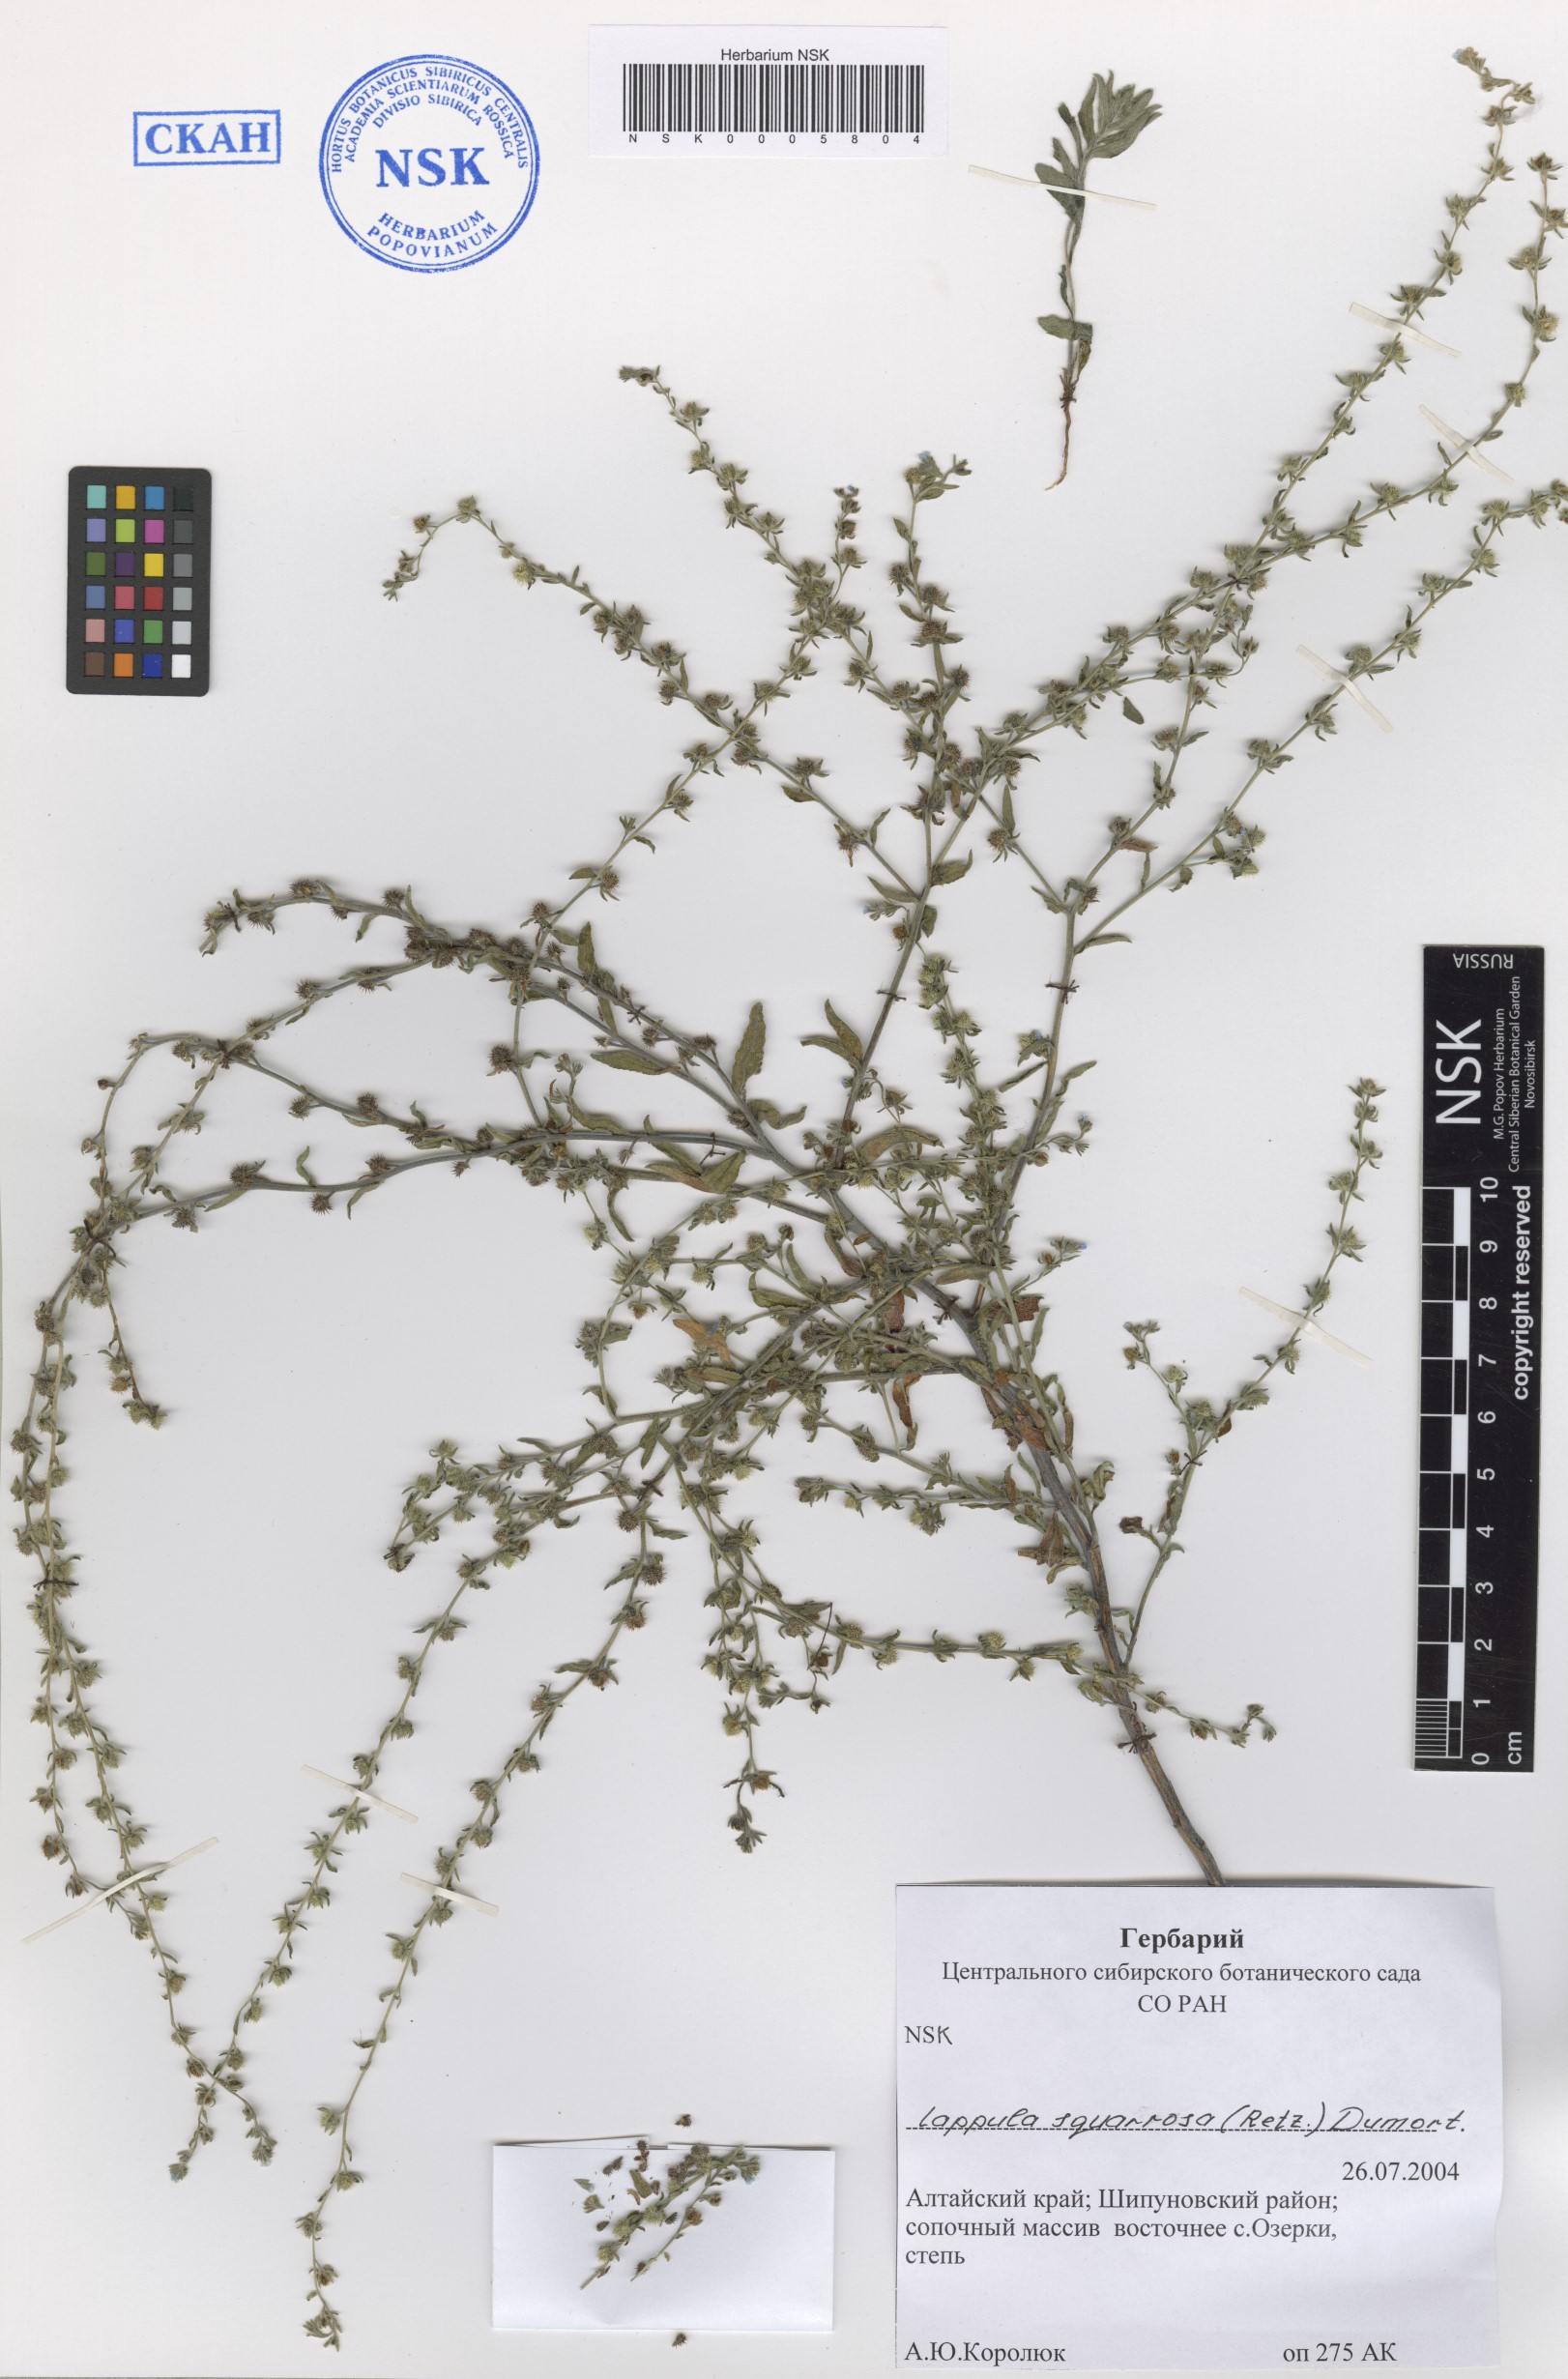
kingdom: Plantae
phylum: Tracheophyta
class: Magnoliopsida
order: Boraginales
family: Boraginaceae
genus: Lappula
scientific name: Lappula squarrosa
